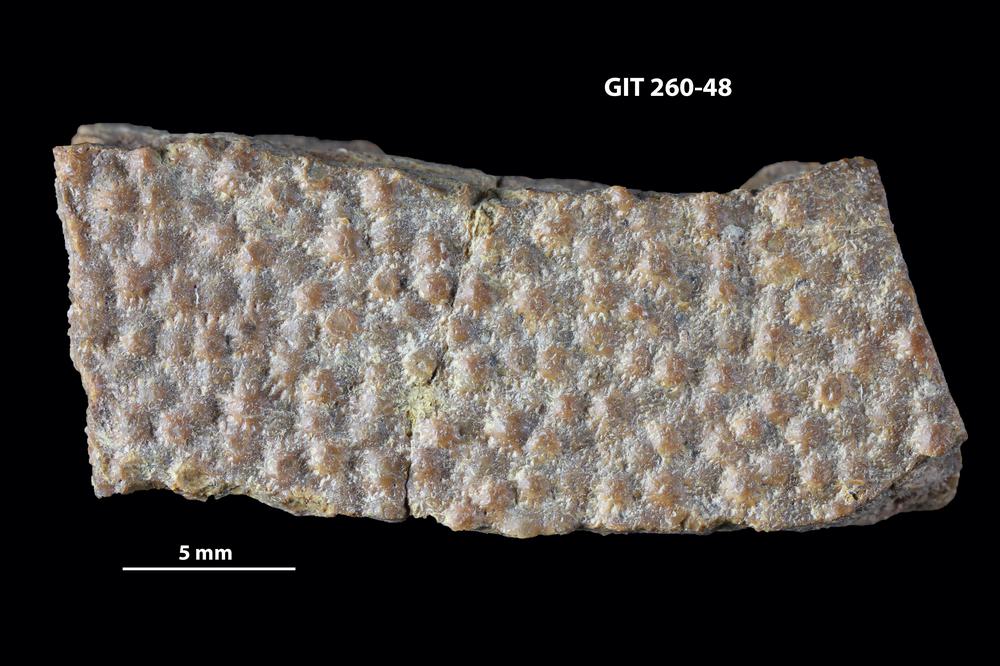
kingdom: Animalia
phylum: Chordata
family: Homostiidae
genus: Homostius
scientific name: Homostius
